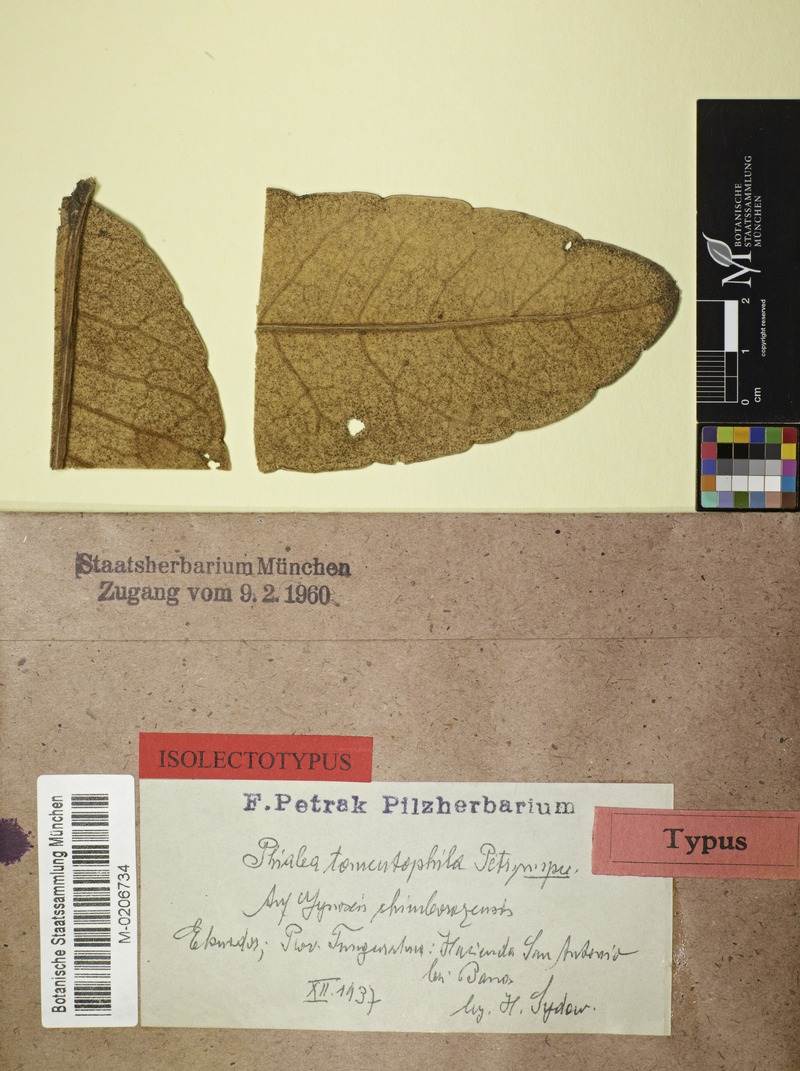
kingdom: Fungi
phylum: Ascomycota
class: Leotiomycetes
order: Helotiales
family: Hyaloscyphaceae
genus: Phialea
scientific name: Phialea tomentophila
